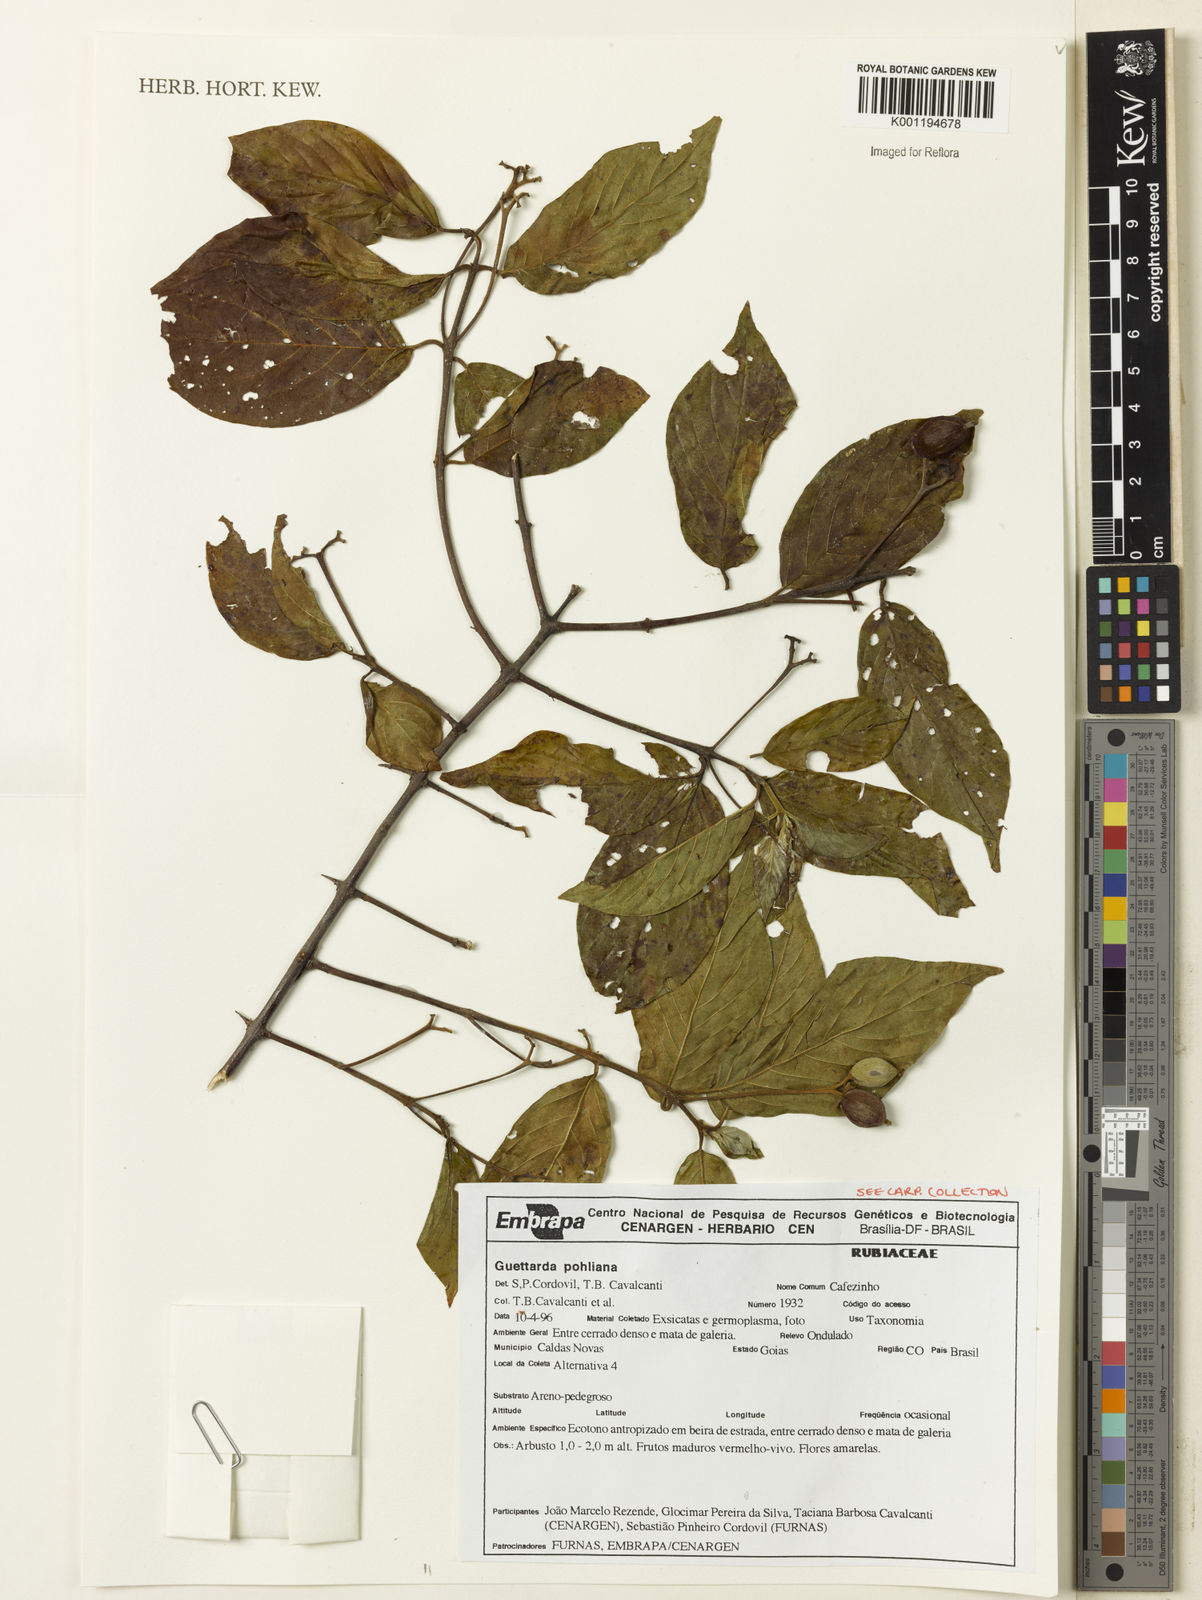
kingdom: Plantae
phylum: Tracheophyta
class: Magnoliopsida
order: Gentianales
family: Rubiaceae
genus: Guettarda
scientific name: Guettarda
